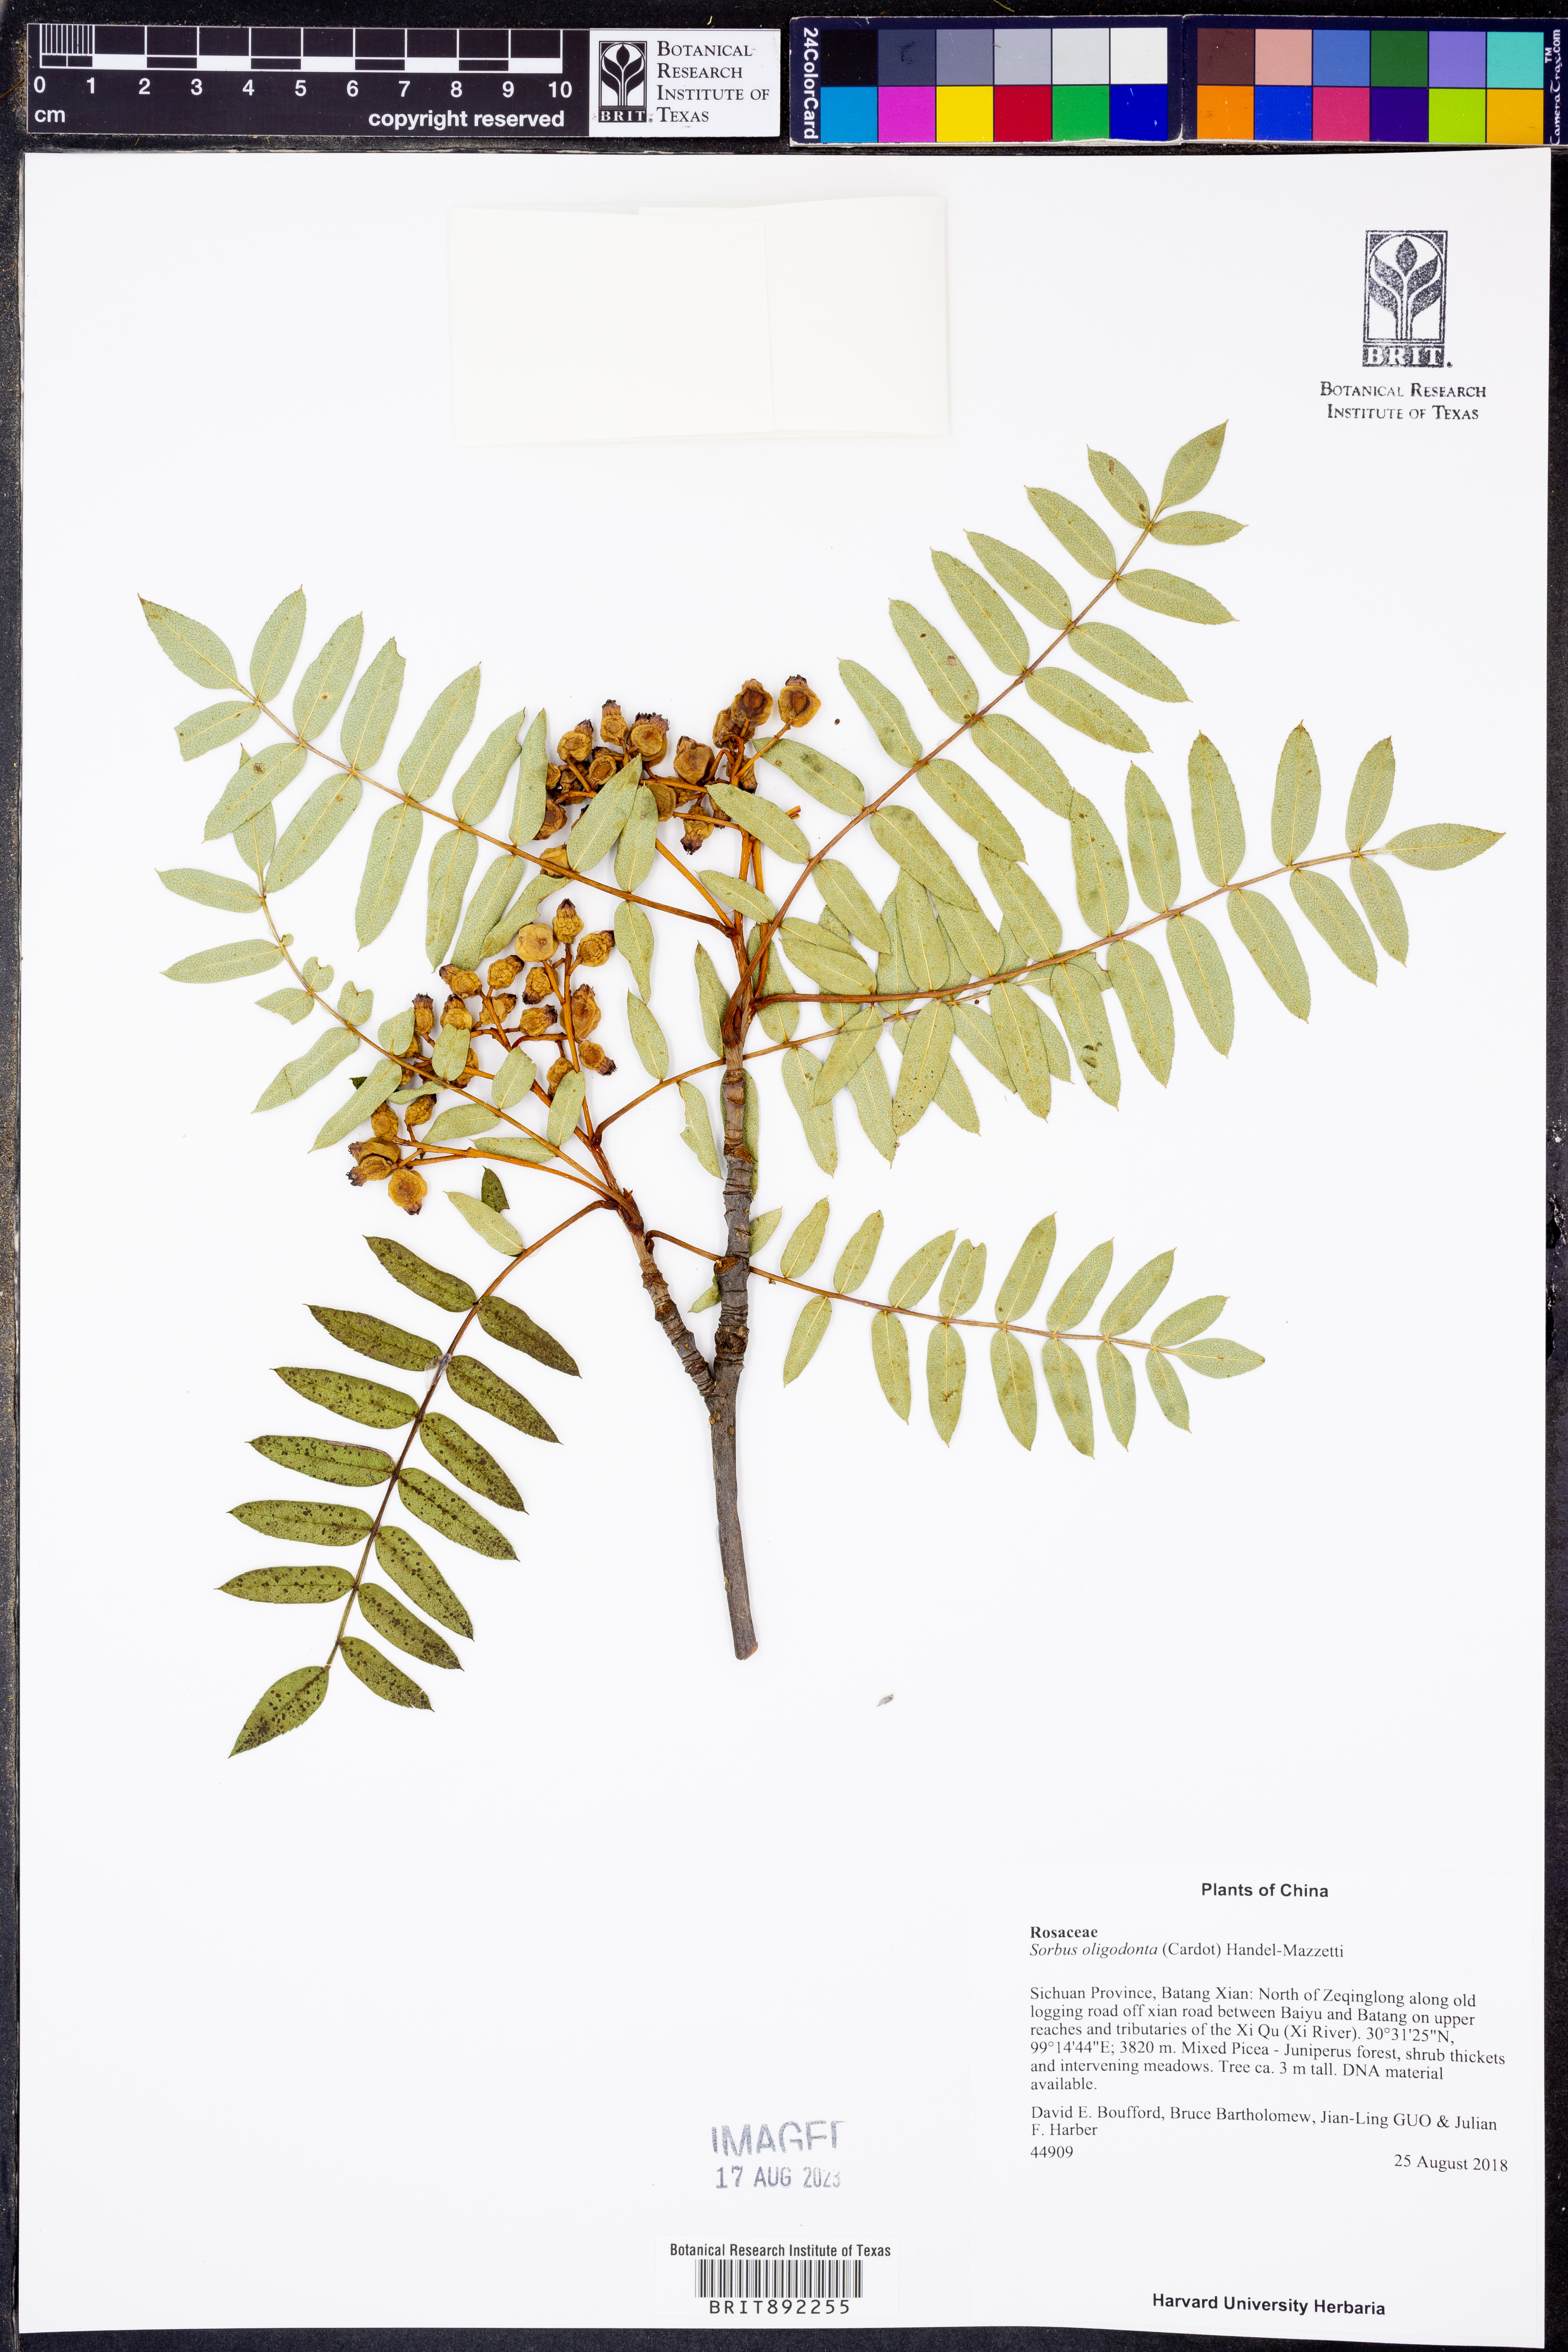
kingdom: Plantae
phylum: Tracheophyta
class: Magnoliopsida
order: Rosales
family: Rosaceae
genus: Sorbus
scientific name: Sorbus oligodonta
